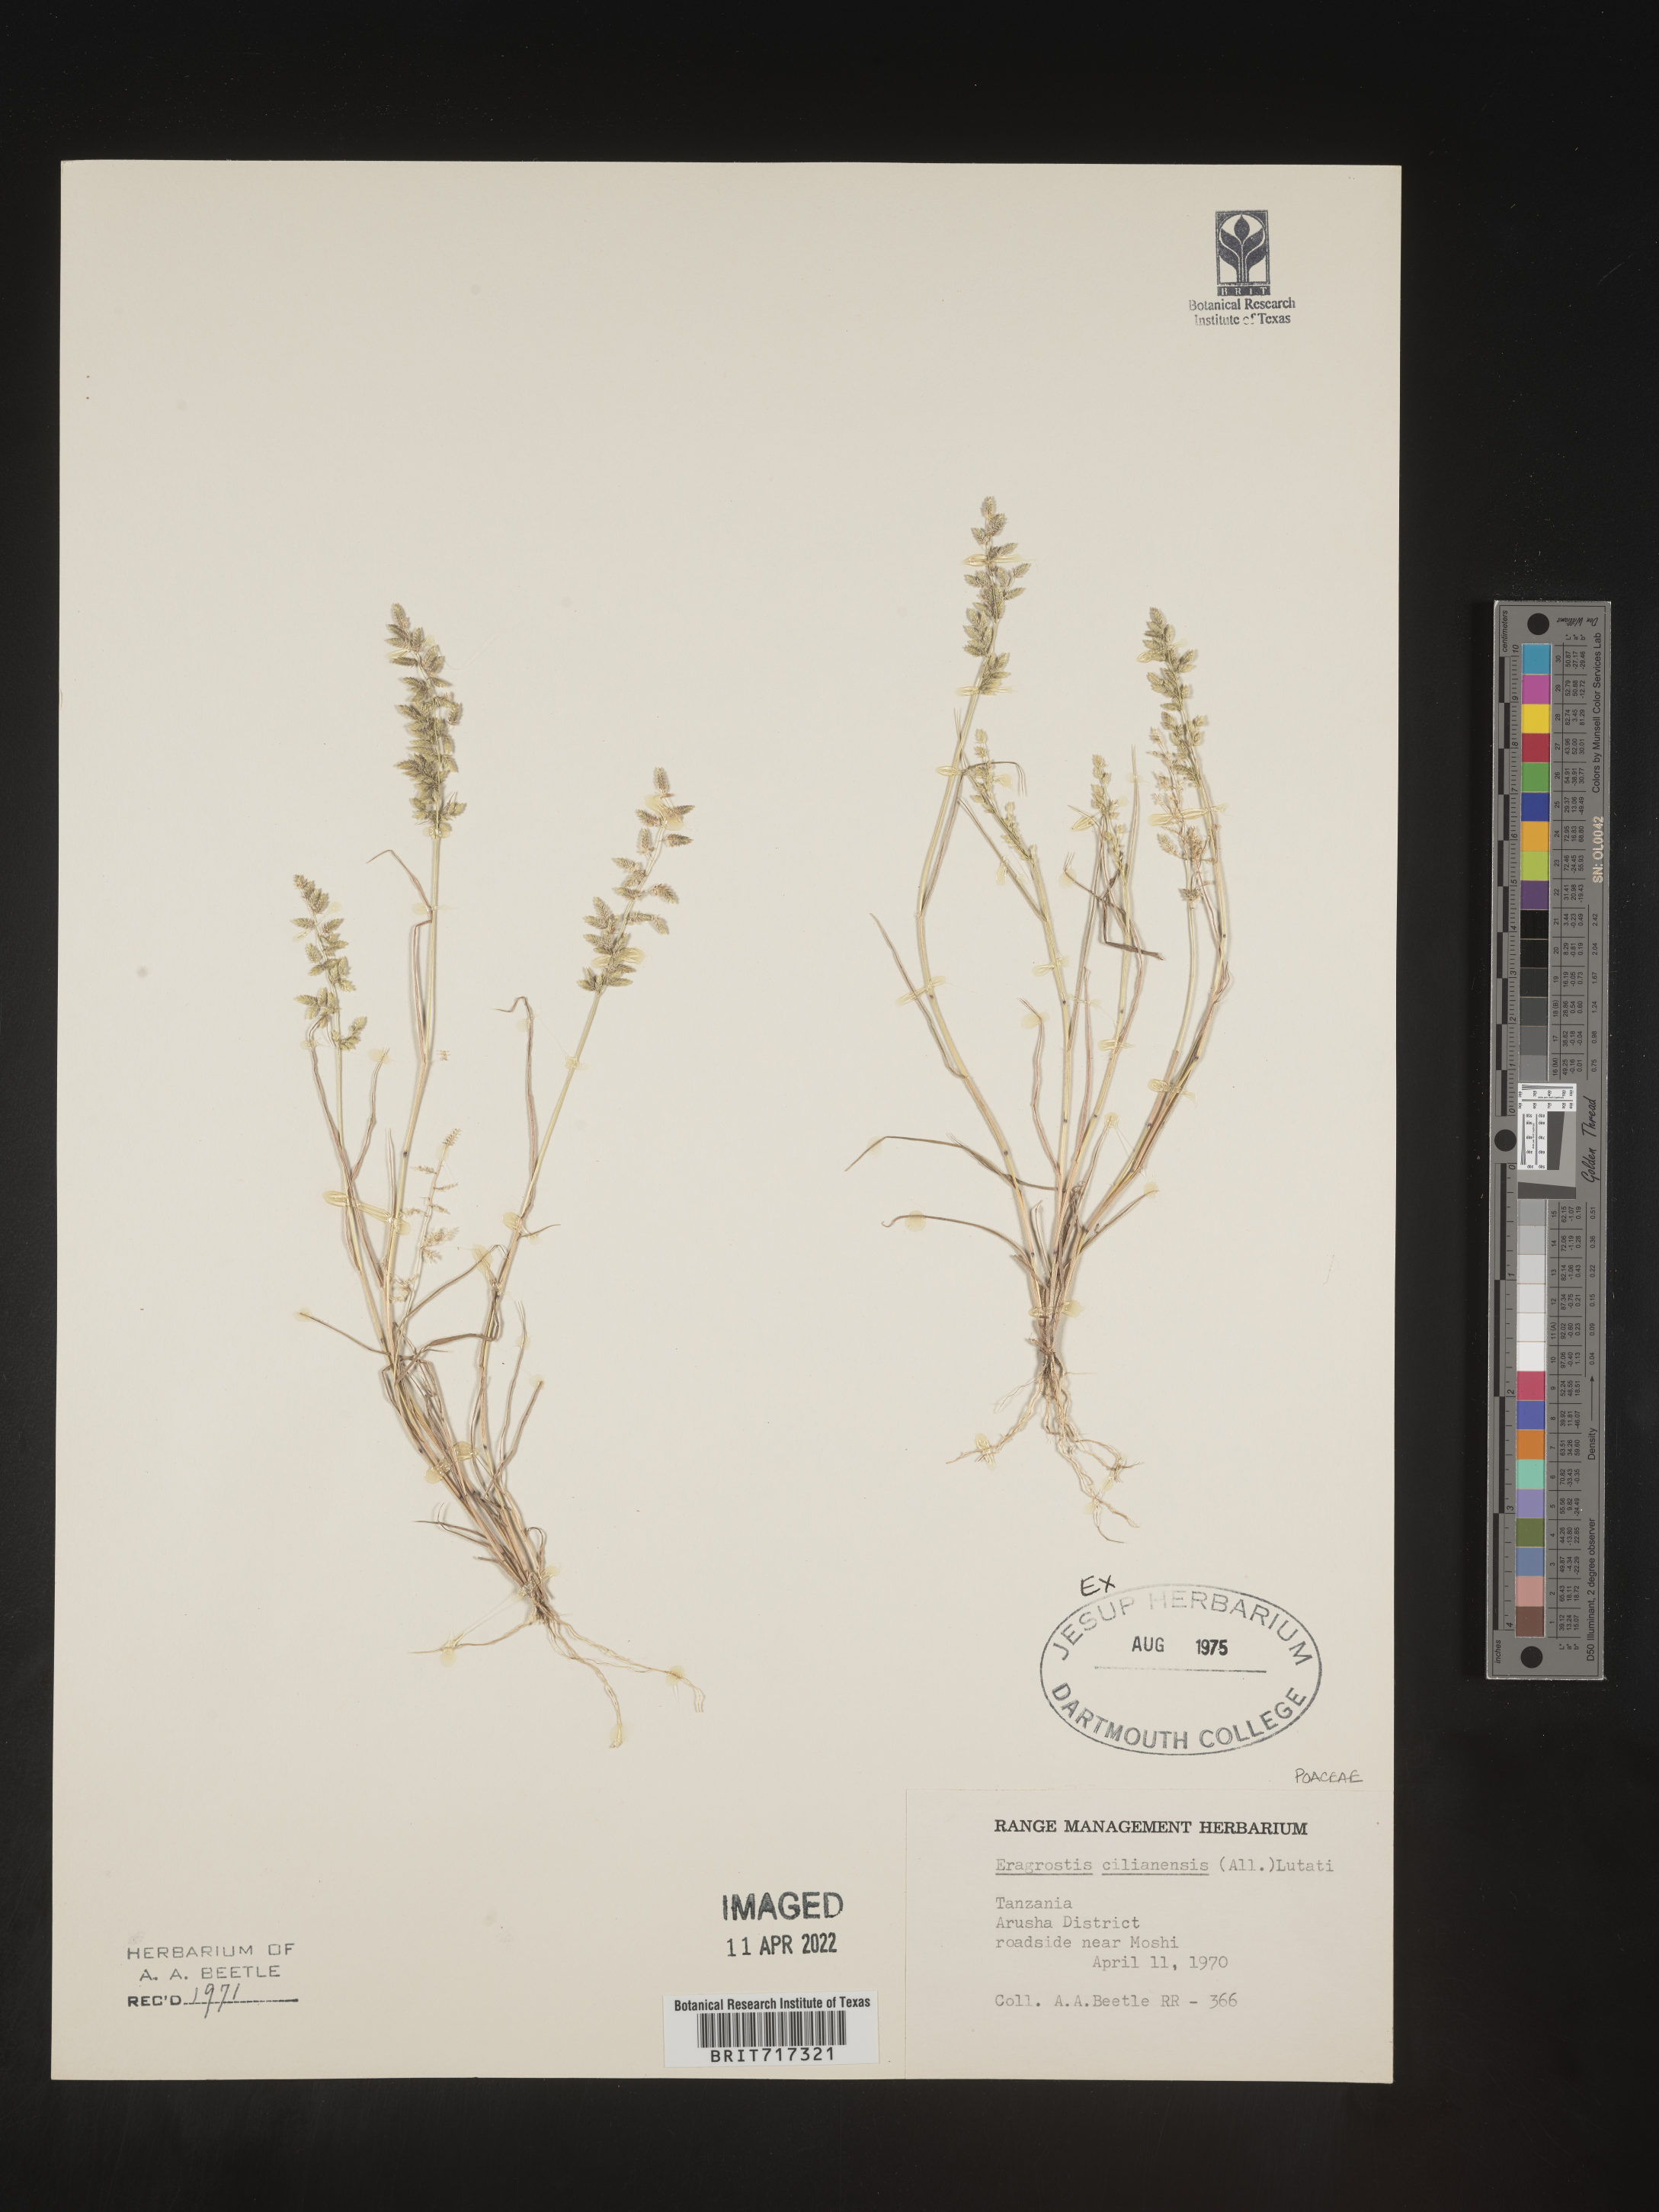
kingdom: Plantae
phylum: Tracheophyta
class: Liliopsida
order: Poales
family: Poaceae
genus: Eragrostis
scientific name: Eragrostis
